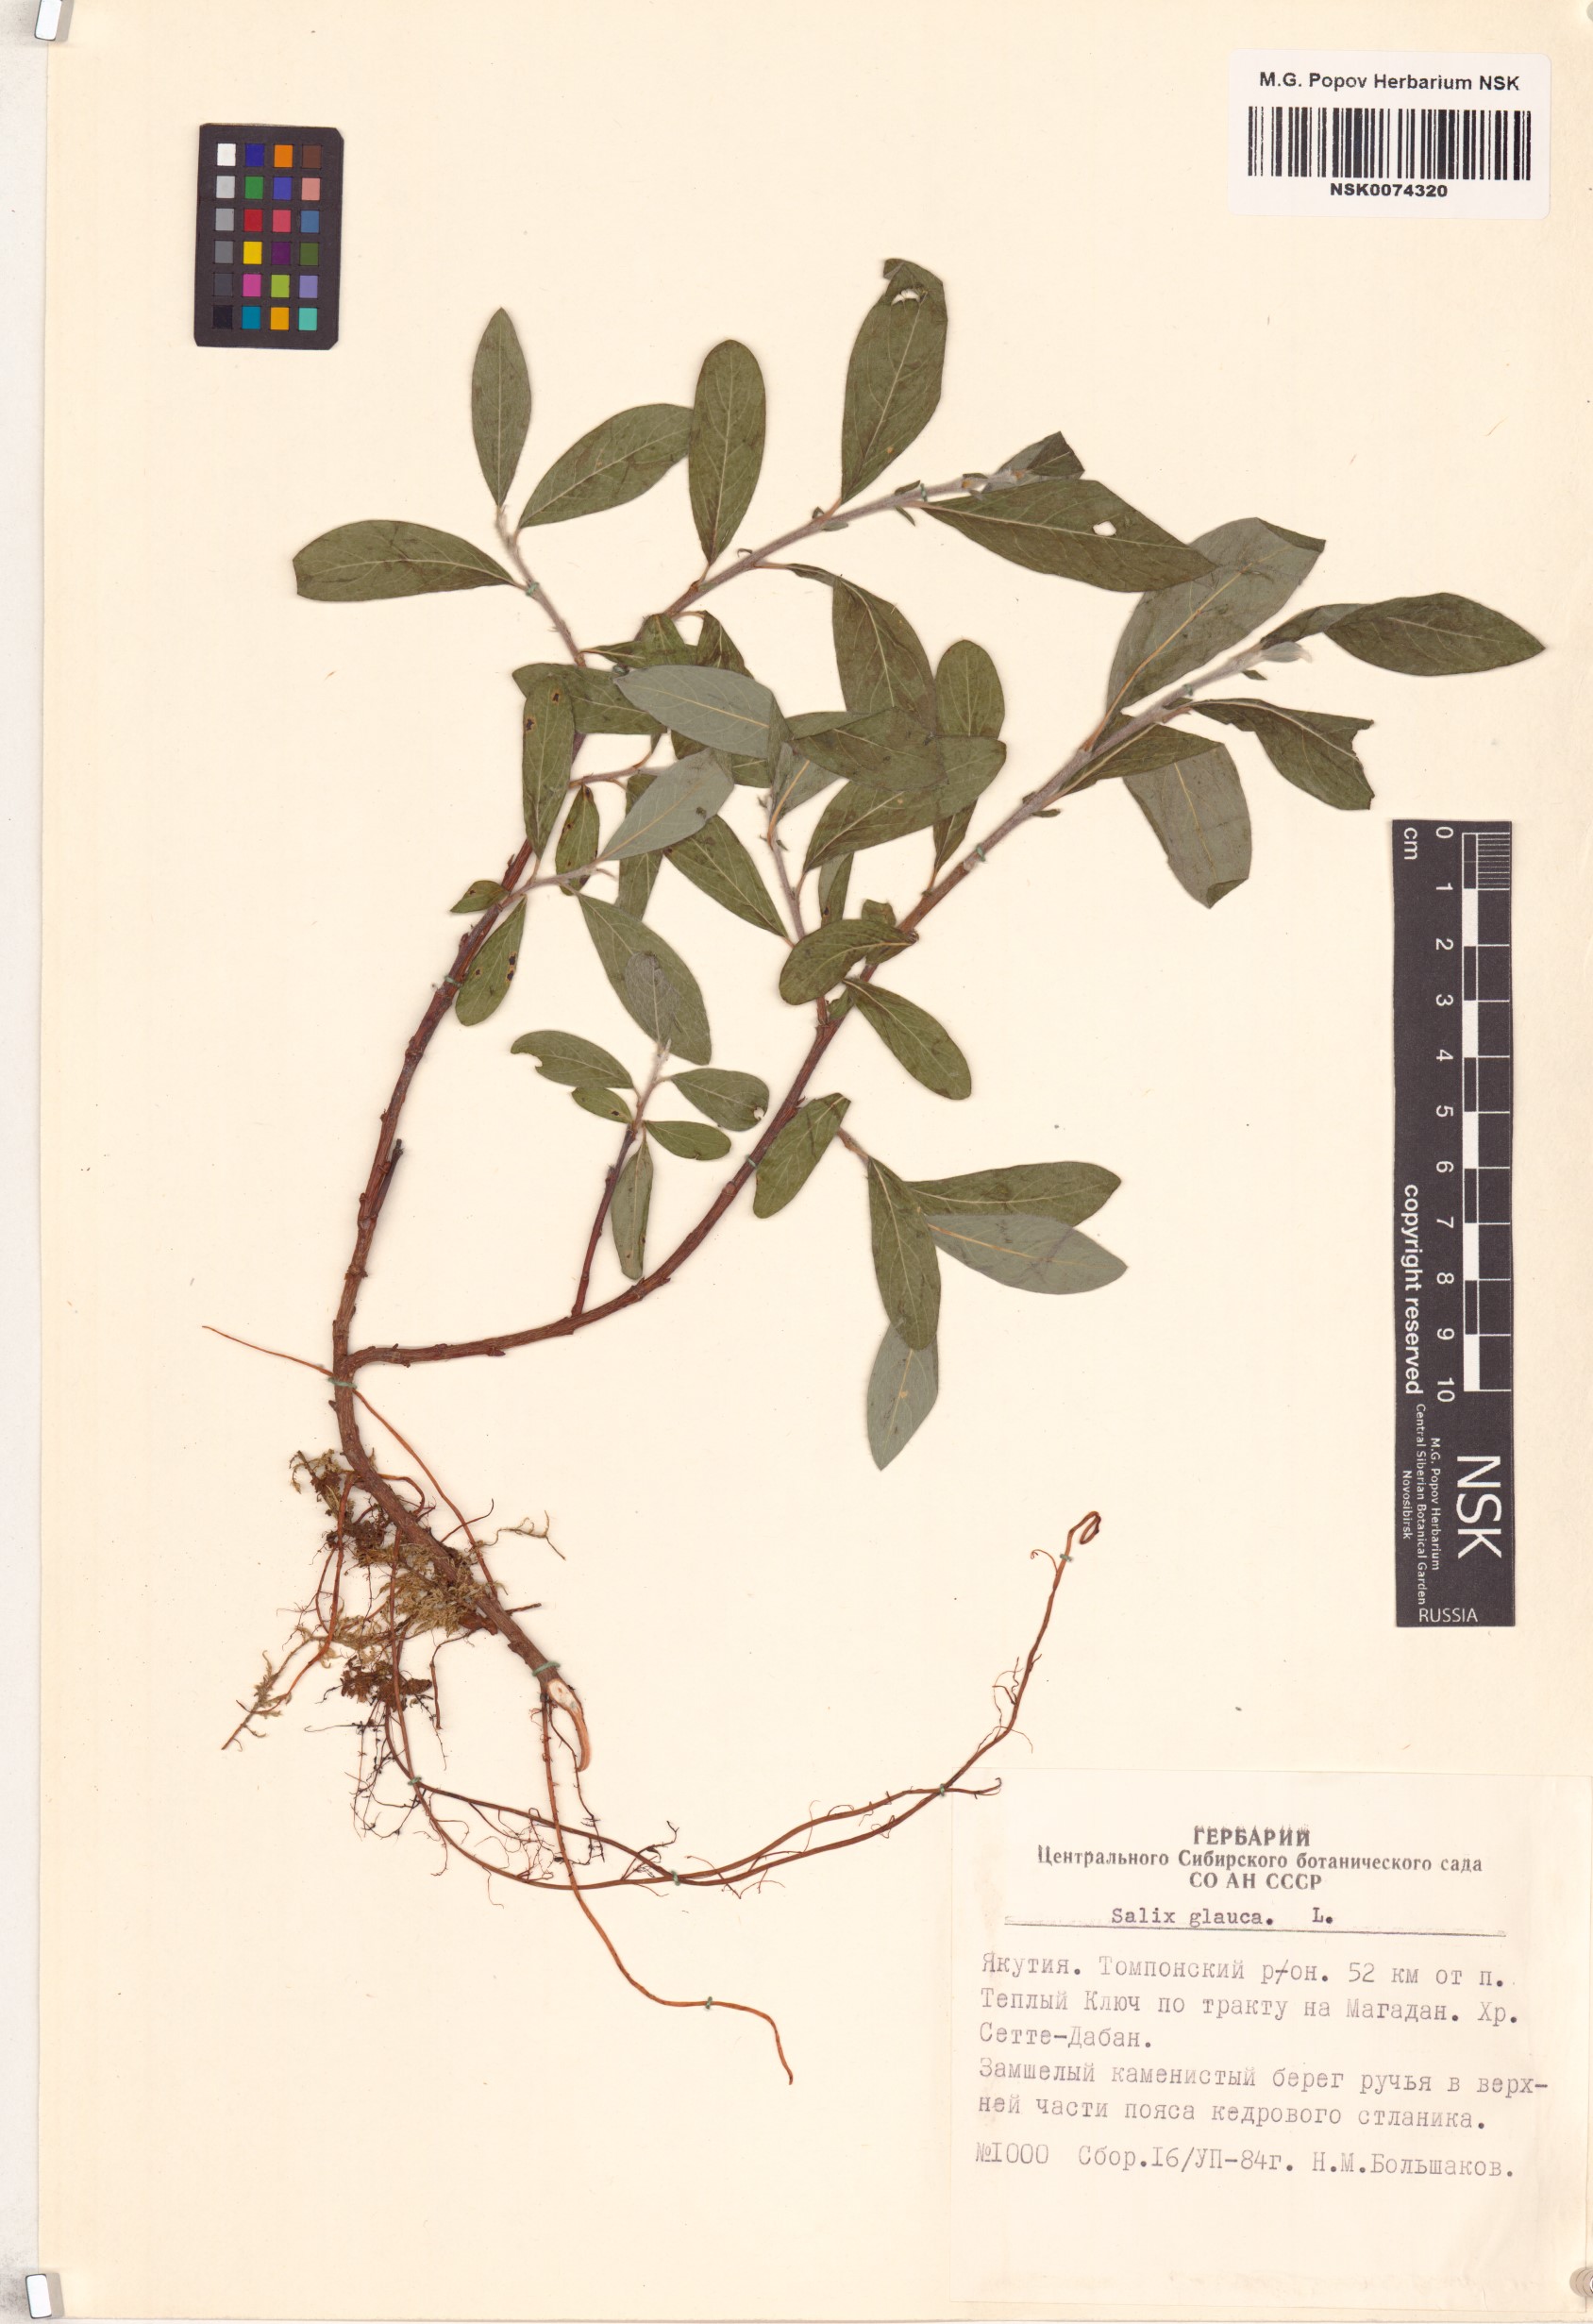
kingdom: Plantae
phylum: Tracheophyta
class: Magnoliopsida
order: Malpighiales
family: Salicaceae
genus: Salix
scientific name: Salix glauca
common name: Glaucous willow
